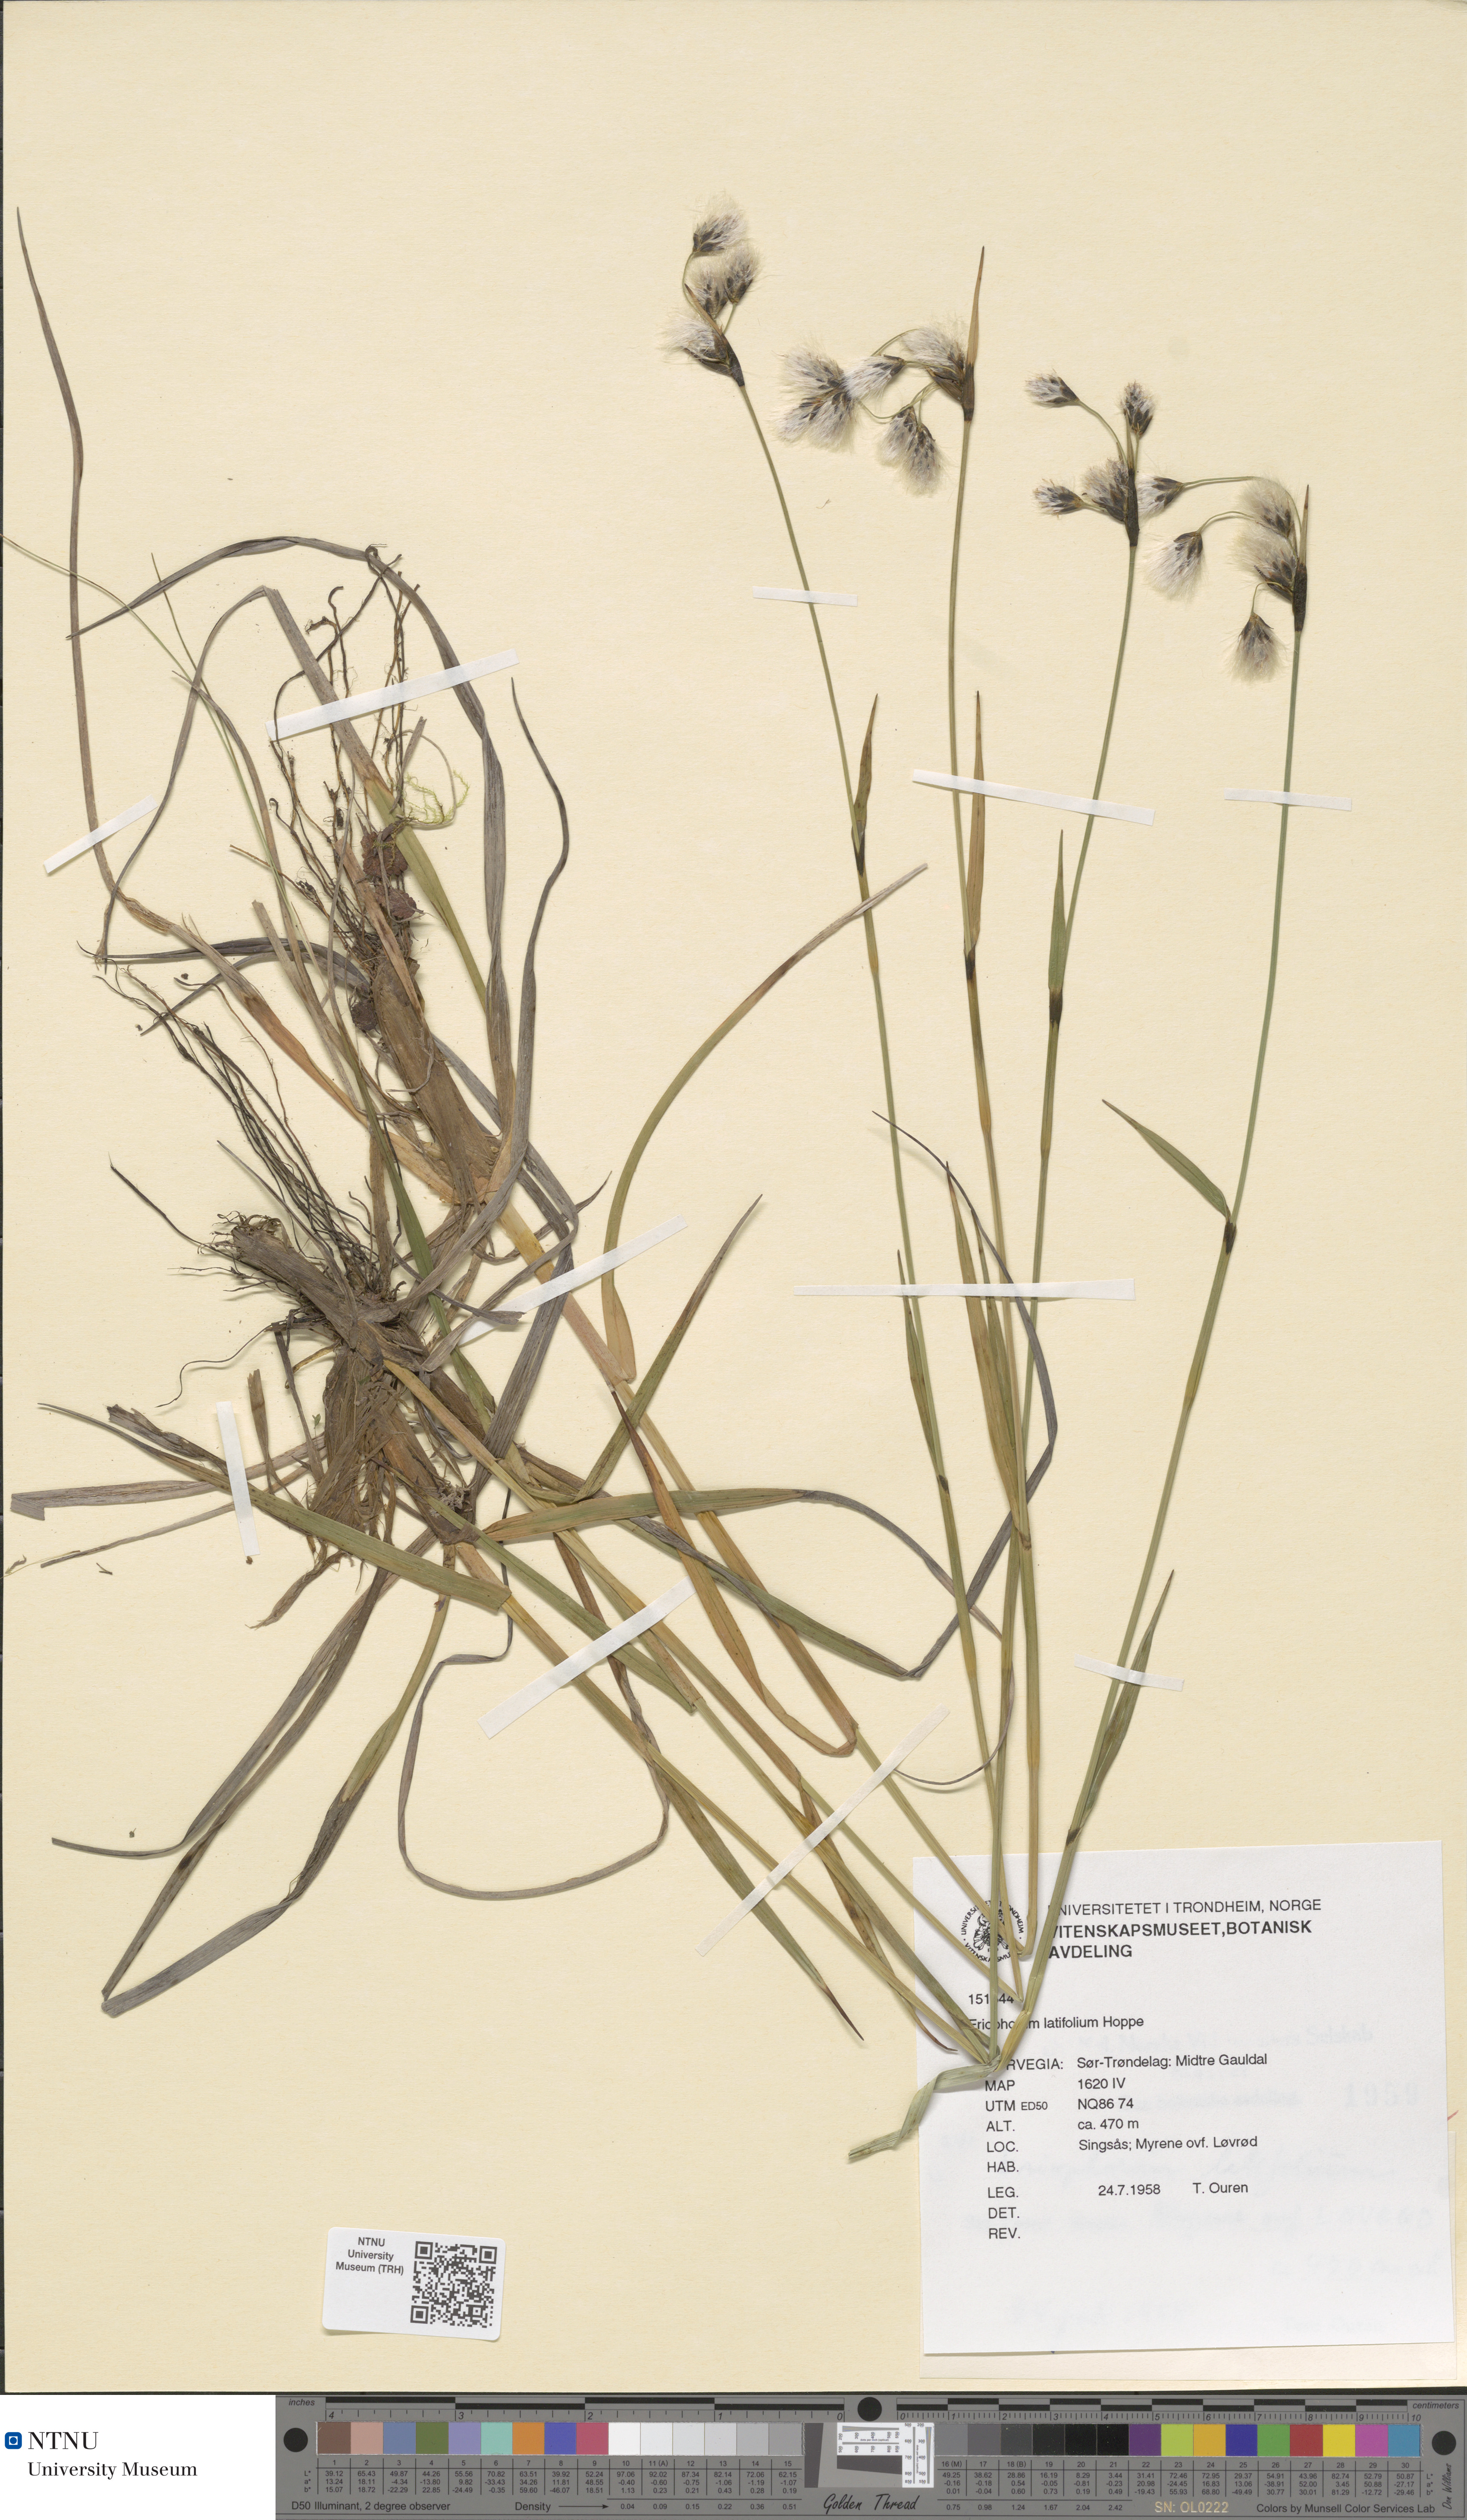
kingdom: Plantae
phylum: Tracheophyta
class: Liliopsida
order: Poales
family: Cyperaceae
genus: Eriophorum
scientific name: Eriophorum latifolium
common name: Broad-leaved cottongrass
